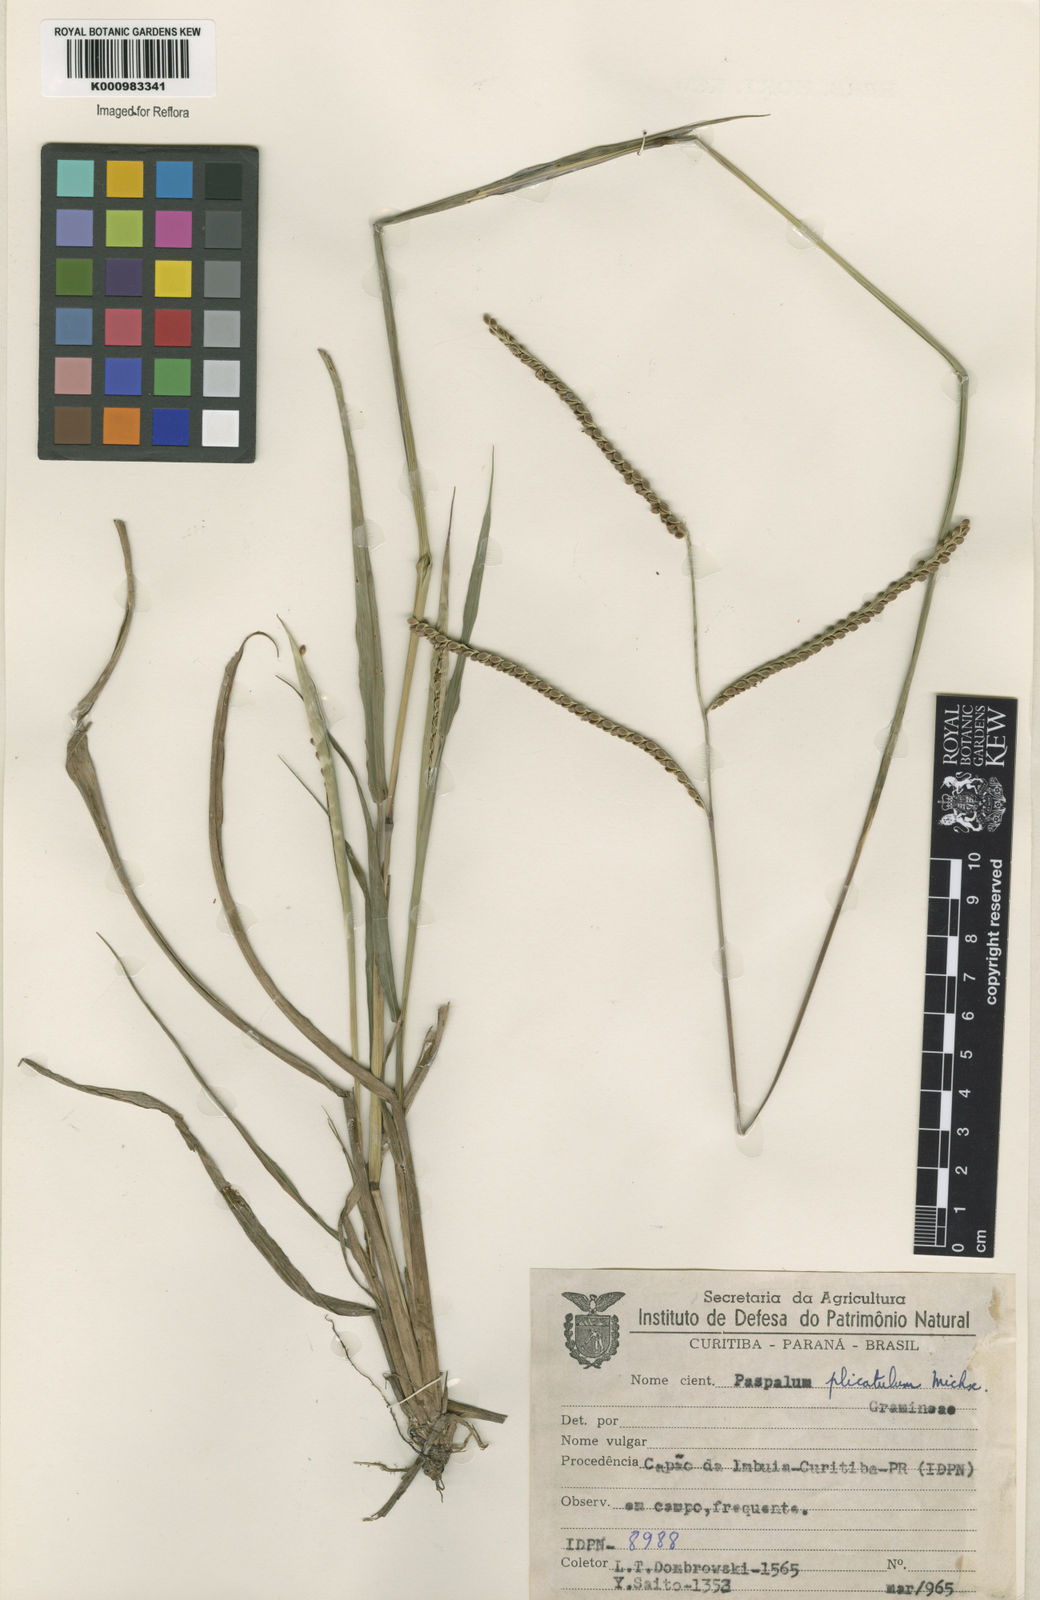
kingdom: Plantae
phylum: Tracheophyta
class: Liliopsida
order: Poales
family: Poaceae
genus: Paspalum
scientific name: Paspalum plicatulum
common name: Top paspalum
